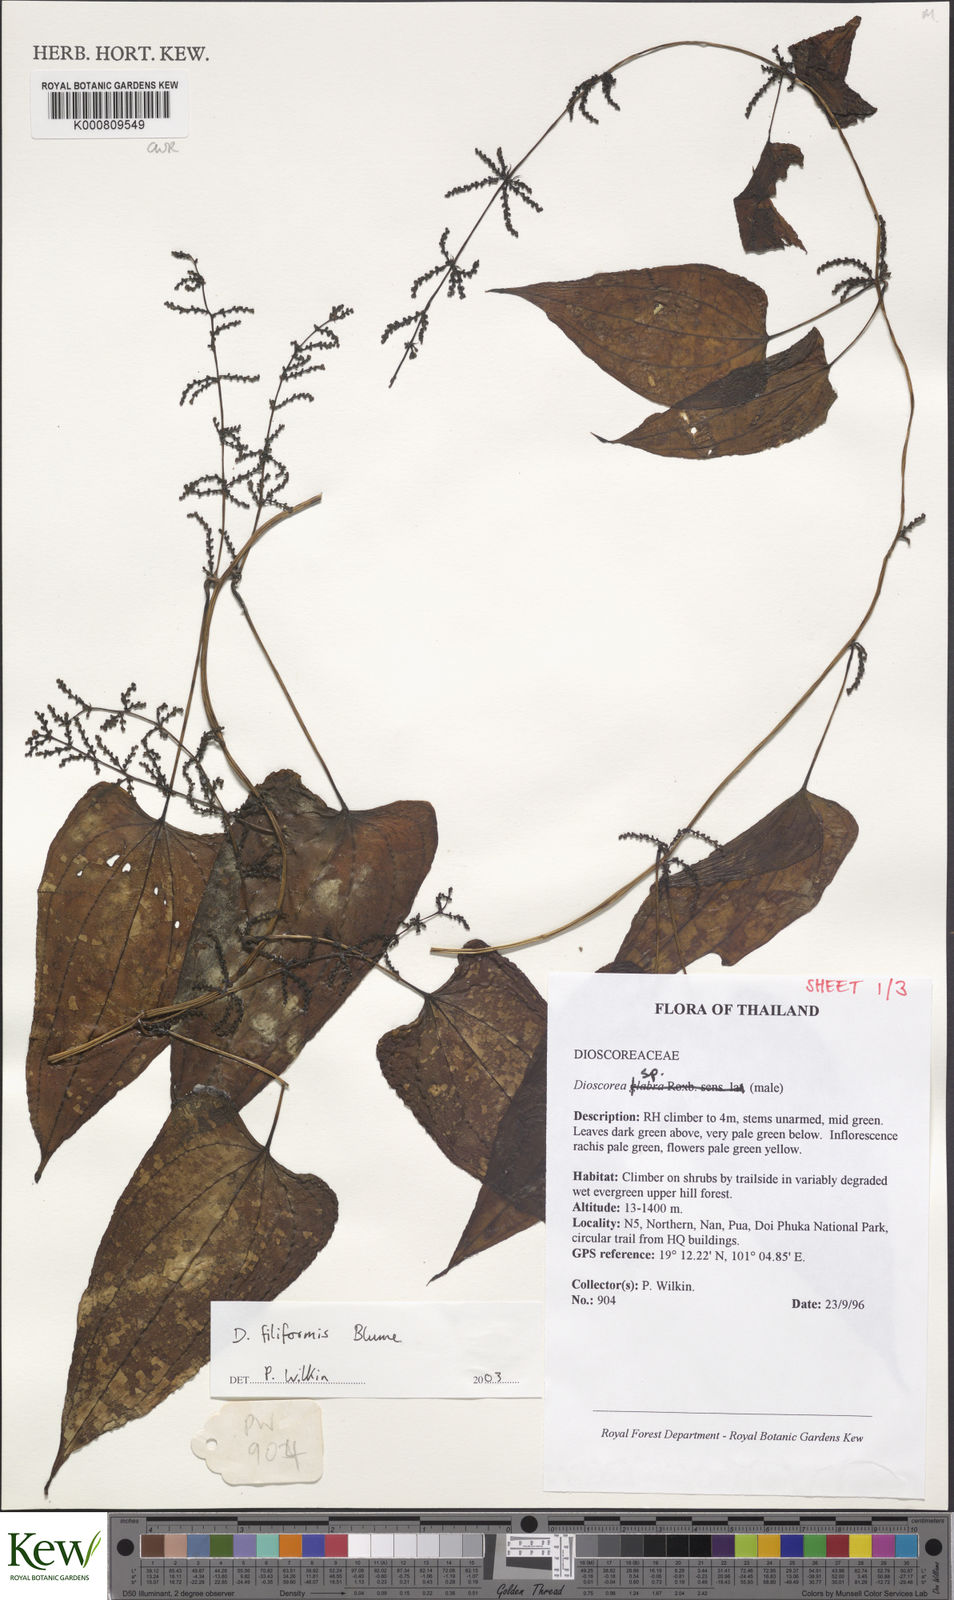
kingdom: Plantae
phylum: Tracheophyta
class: Liliopsida
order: Dioscoreales
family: Dioscoreaceae
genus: Dioscorea
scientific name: Dioscorea filiformis
